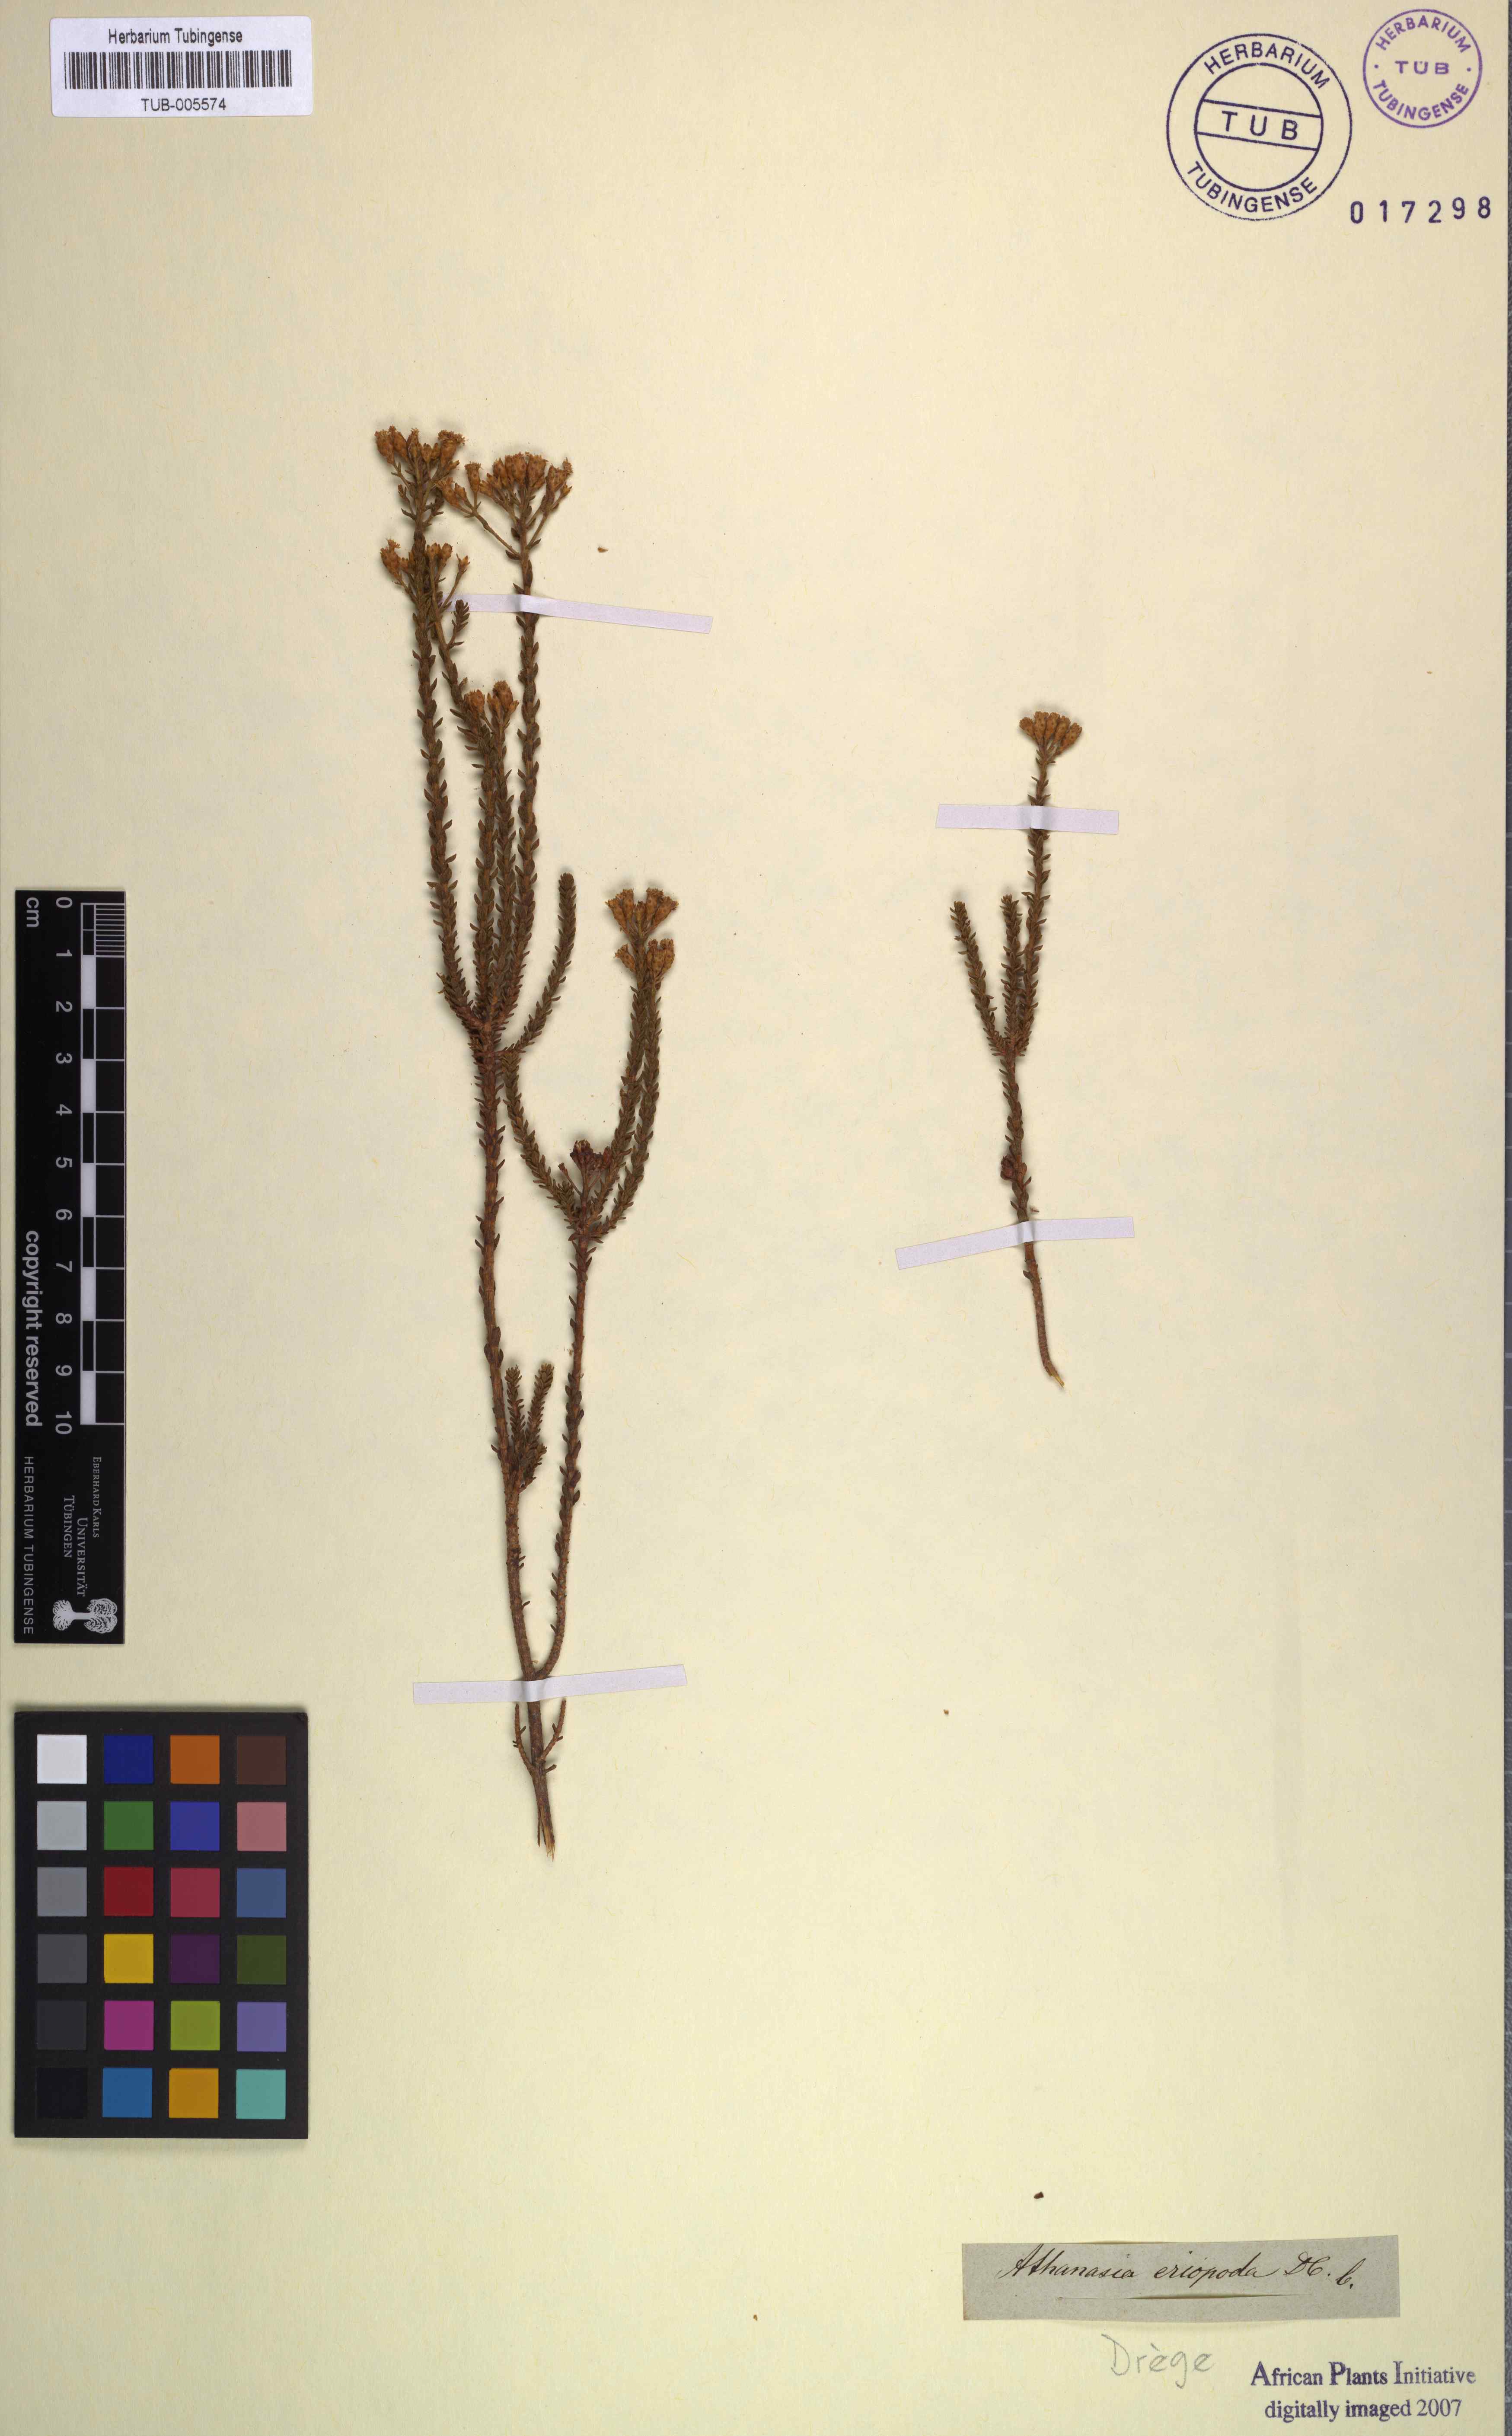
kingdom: Plantae
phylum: Tracheophyta
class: Magnoliopsida
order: Asterales
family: Asteraceae
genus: Athanasia
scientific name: Athanasia pachycephala
